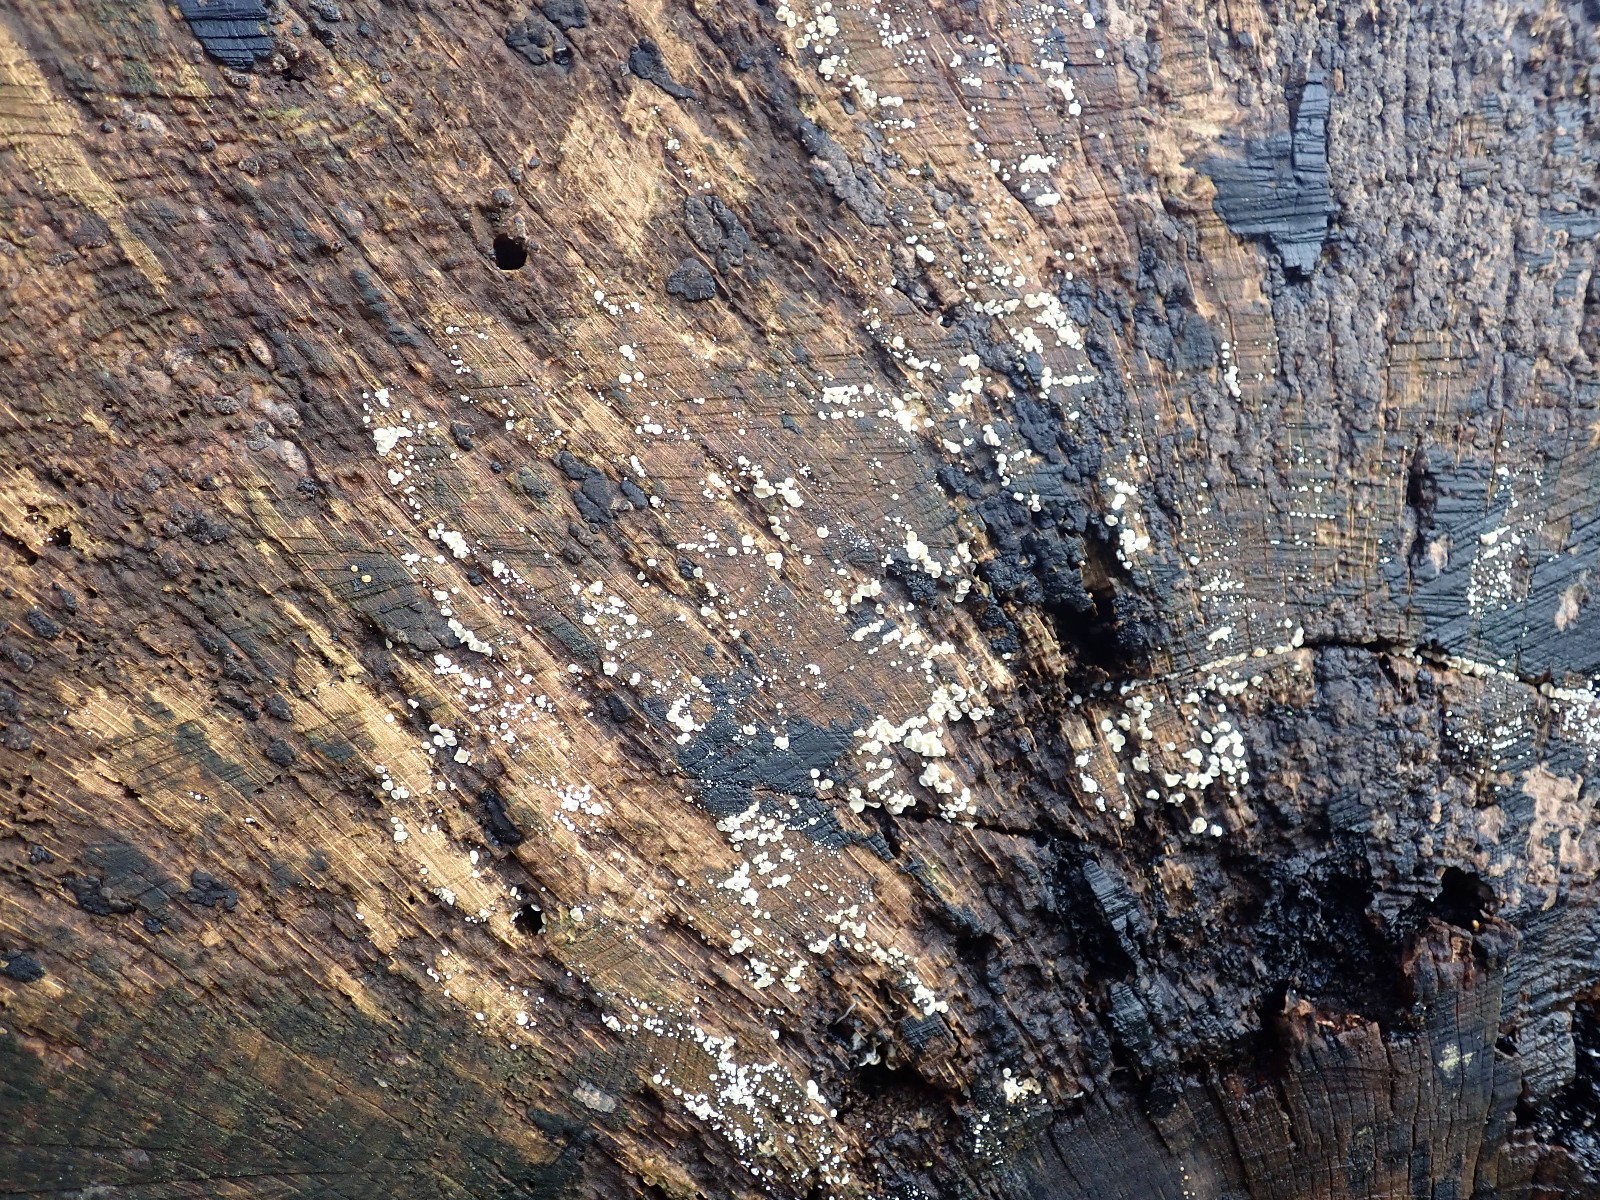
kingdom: Fungi
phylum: Ascomycota
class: Leotiomycetes
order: Helotiales
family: Mollisiaceae
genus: Mollisia
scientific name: Mollisia
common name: gråskive
